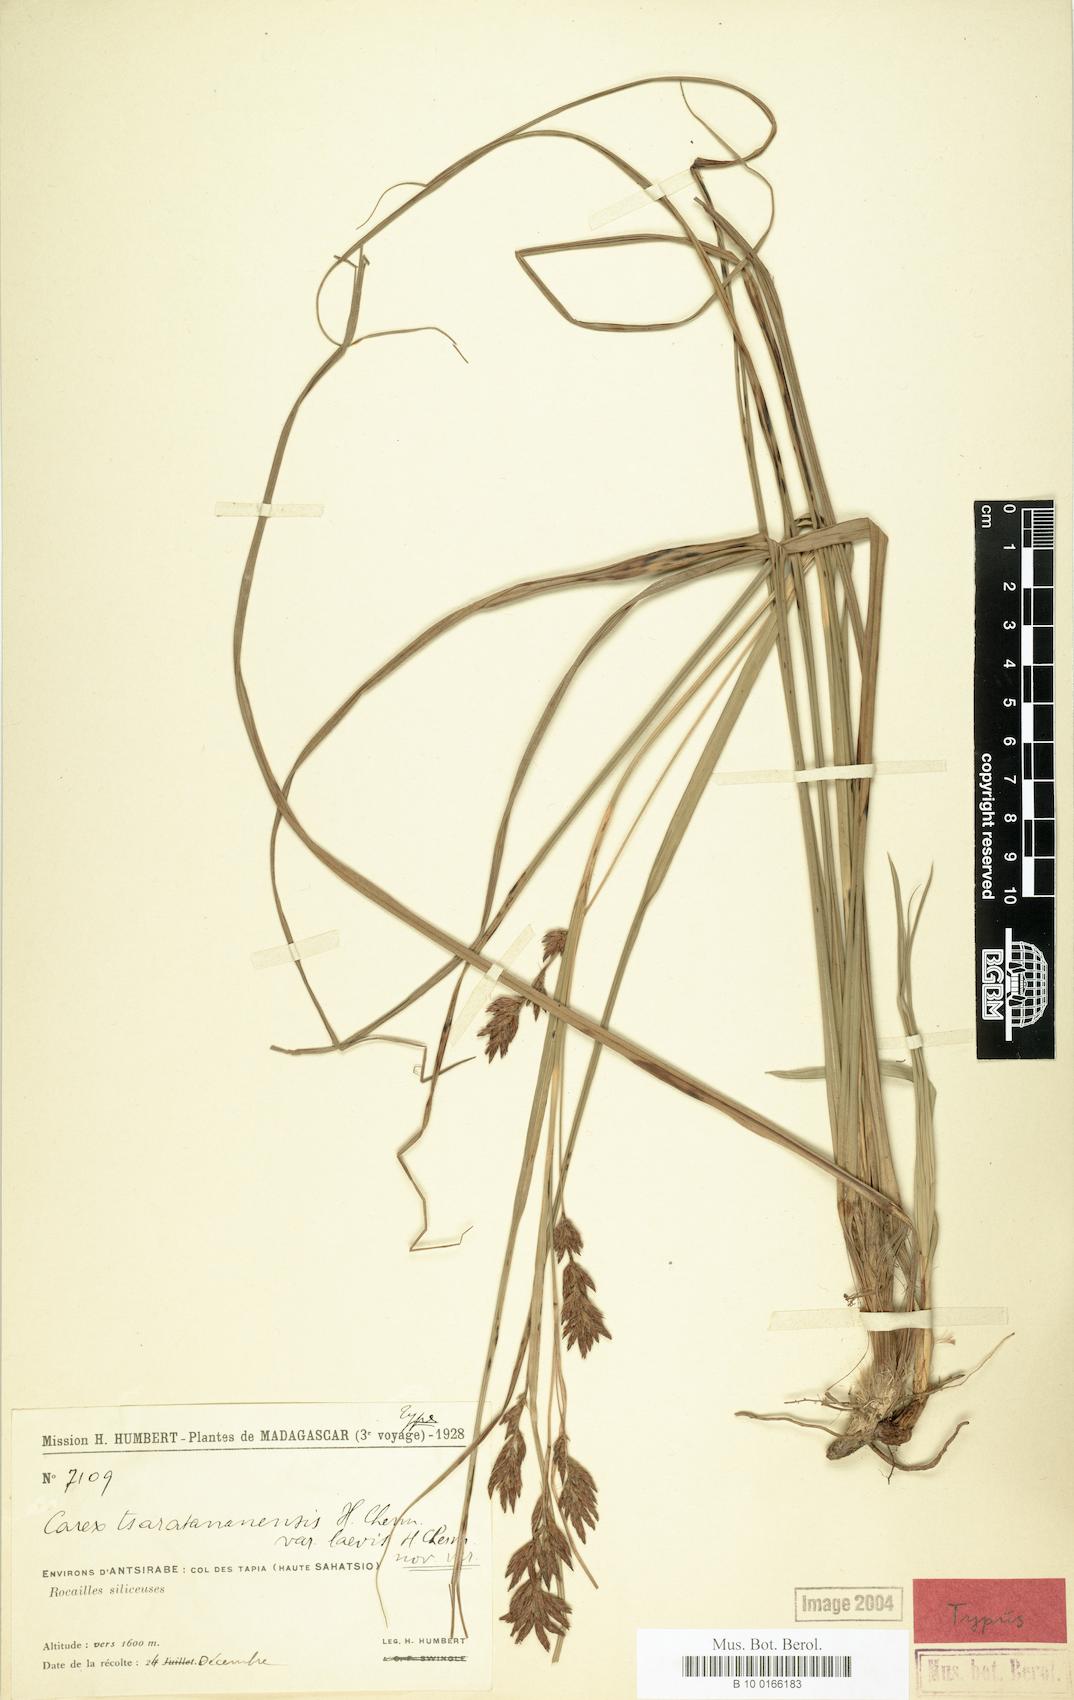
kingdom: Plantae
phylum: Tracheophyta
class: Liliopsida
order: Poales
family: Cyperaceae
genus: Carex
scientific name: Carex tsaratananensis
